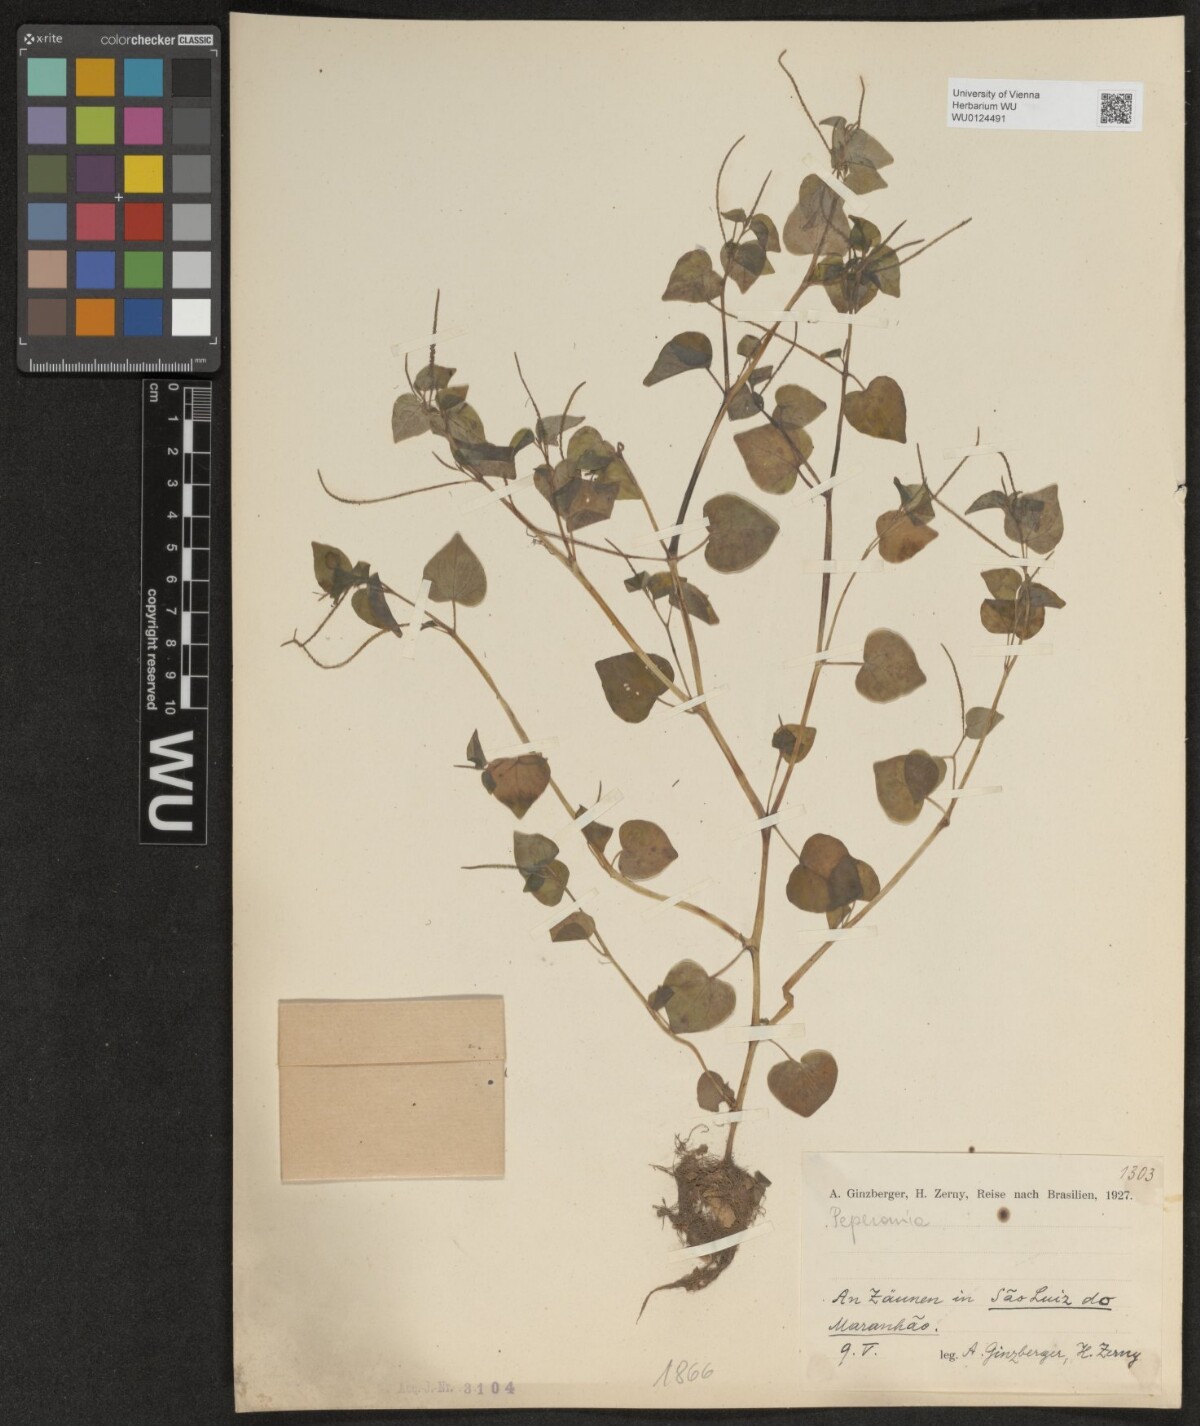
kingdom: Plantae
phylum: Tracheophyta
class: Magnoliopsida
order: Piperales
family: Piperaceae
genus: Peperomia
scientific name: Peperomia
